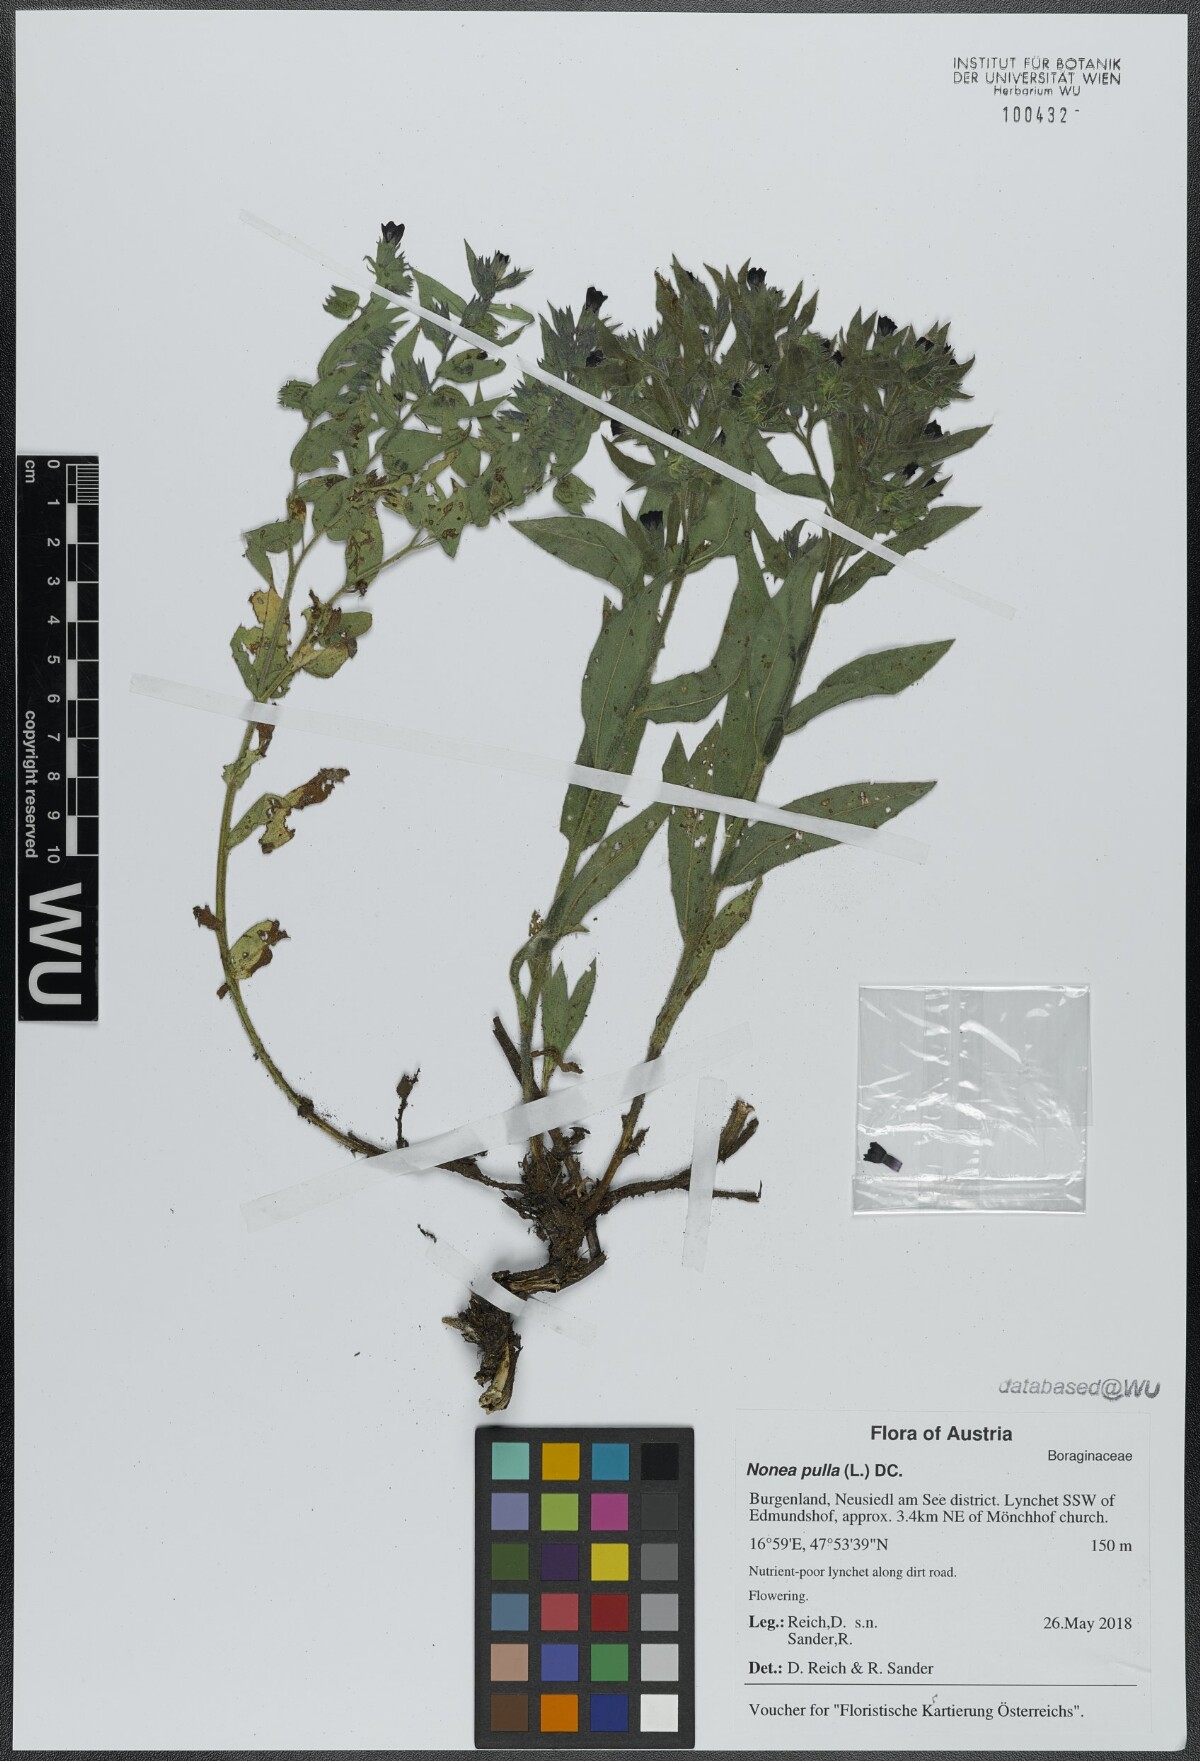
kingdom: Plantae
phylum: Tracheophyta
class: Magnoliopsida
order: Boraginales
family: Boraginaceae
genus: Nonea
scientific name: Nonea pulla
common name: Brown nonea
